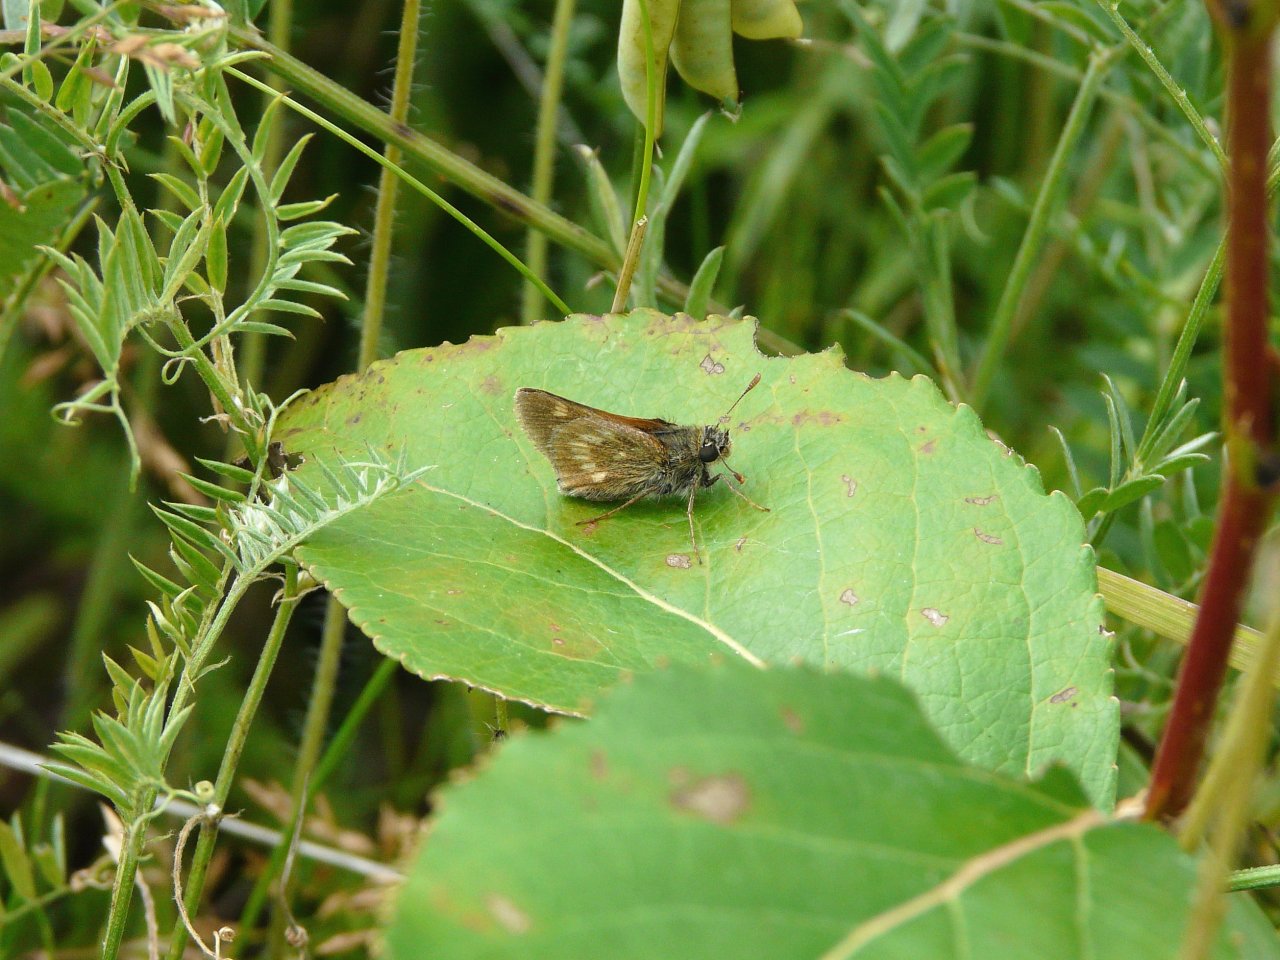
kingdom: Animalia
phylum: Arthropoda
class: Insecta
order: Lepidoptera
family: Hesperiidae
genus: Polites
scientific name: Polites
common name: Long Dash Skipper
